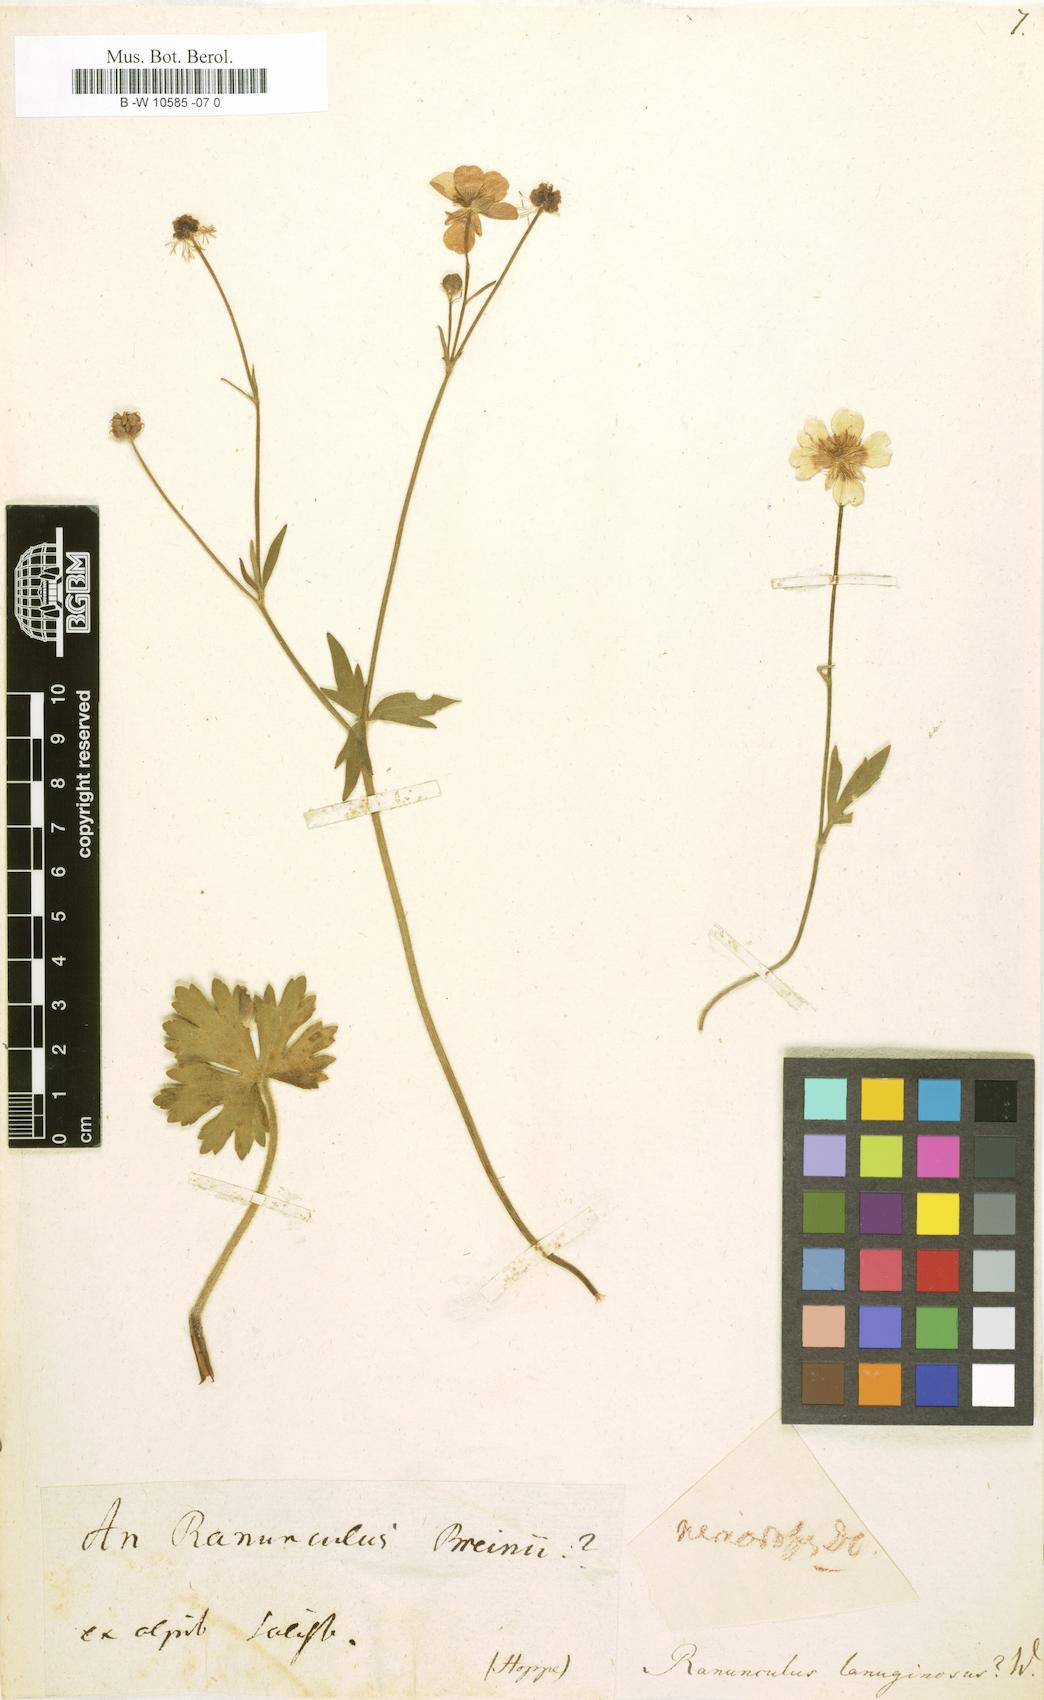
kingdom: Plantae
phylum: Tracheophyta
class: Magnoliopsida
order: Ranunculales
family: Ranunculaceae
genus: Ranunculus
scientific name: Ranunculus lanuginosus
